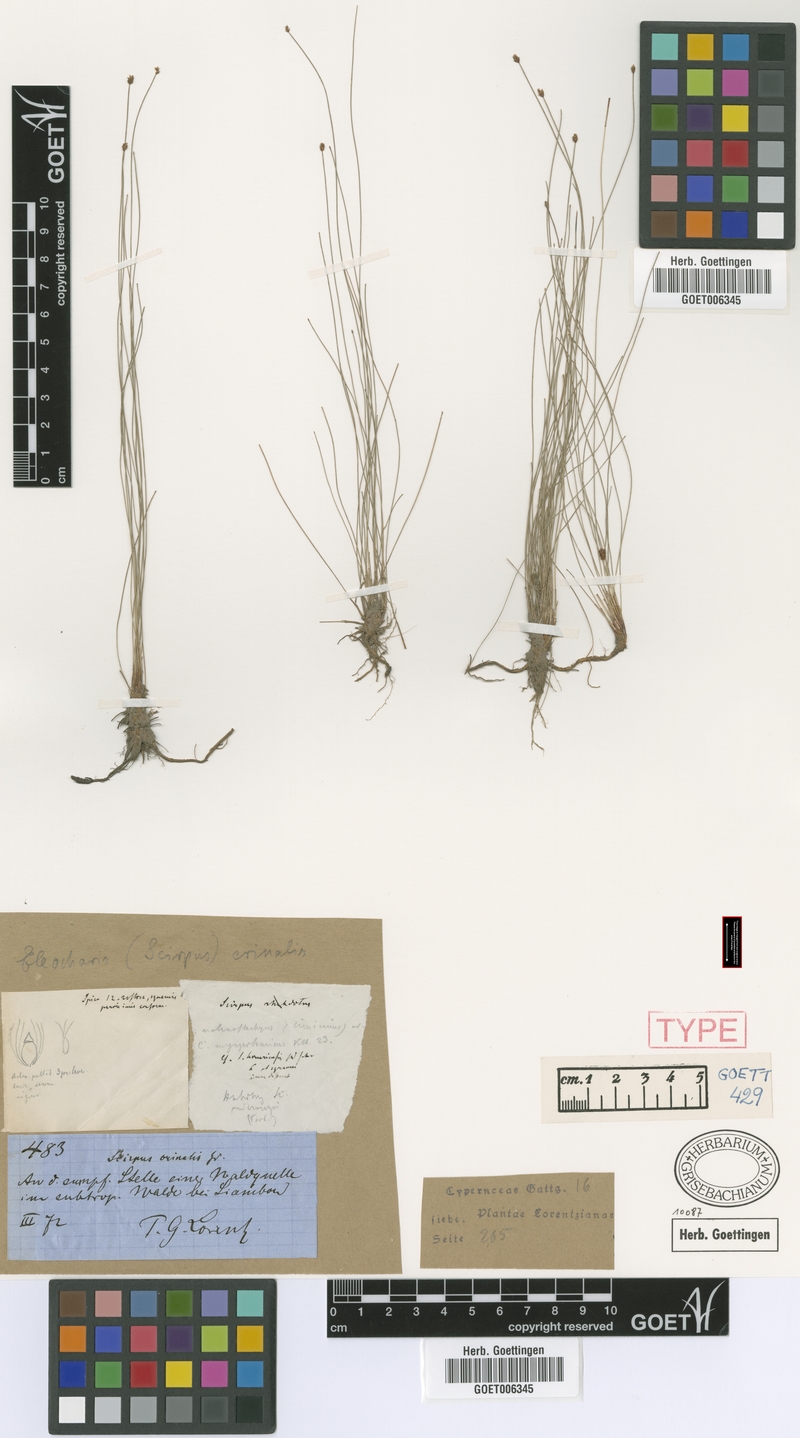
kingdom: Plantae
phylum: Tracheophyta
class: Liliopsida
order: Poales
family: Cyperaceae
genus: Eleocharis
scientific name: Eleocharis crinalis
